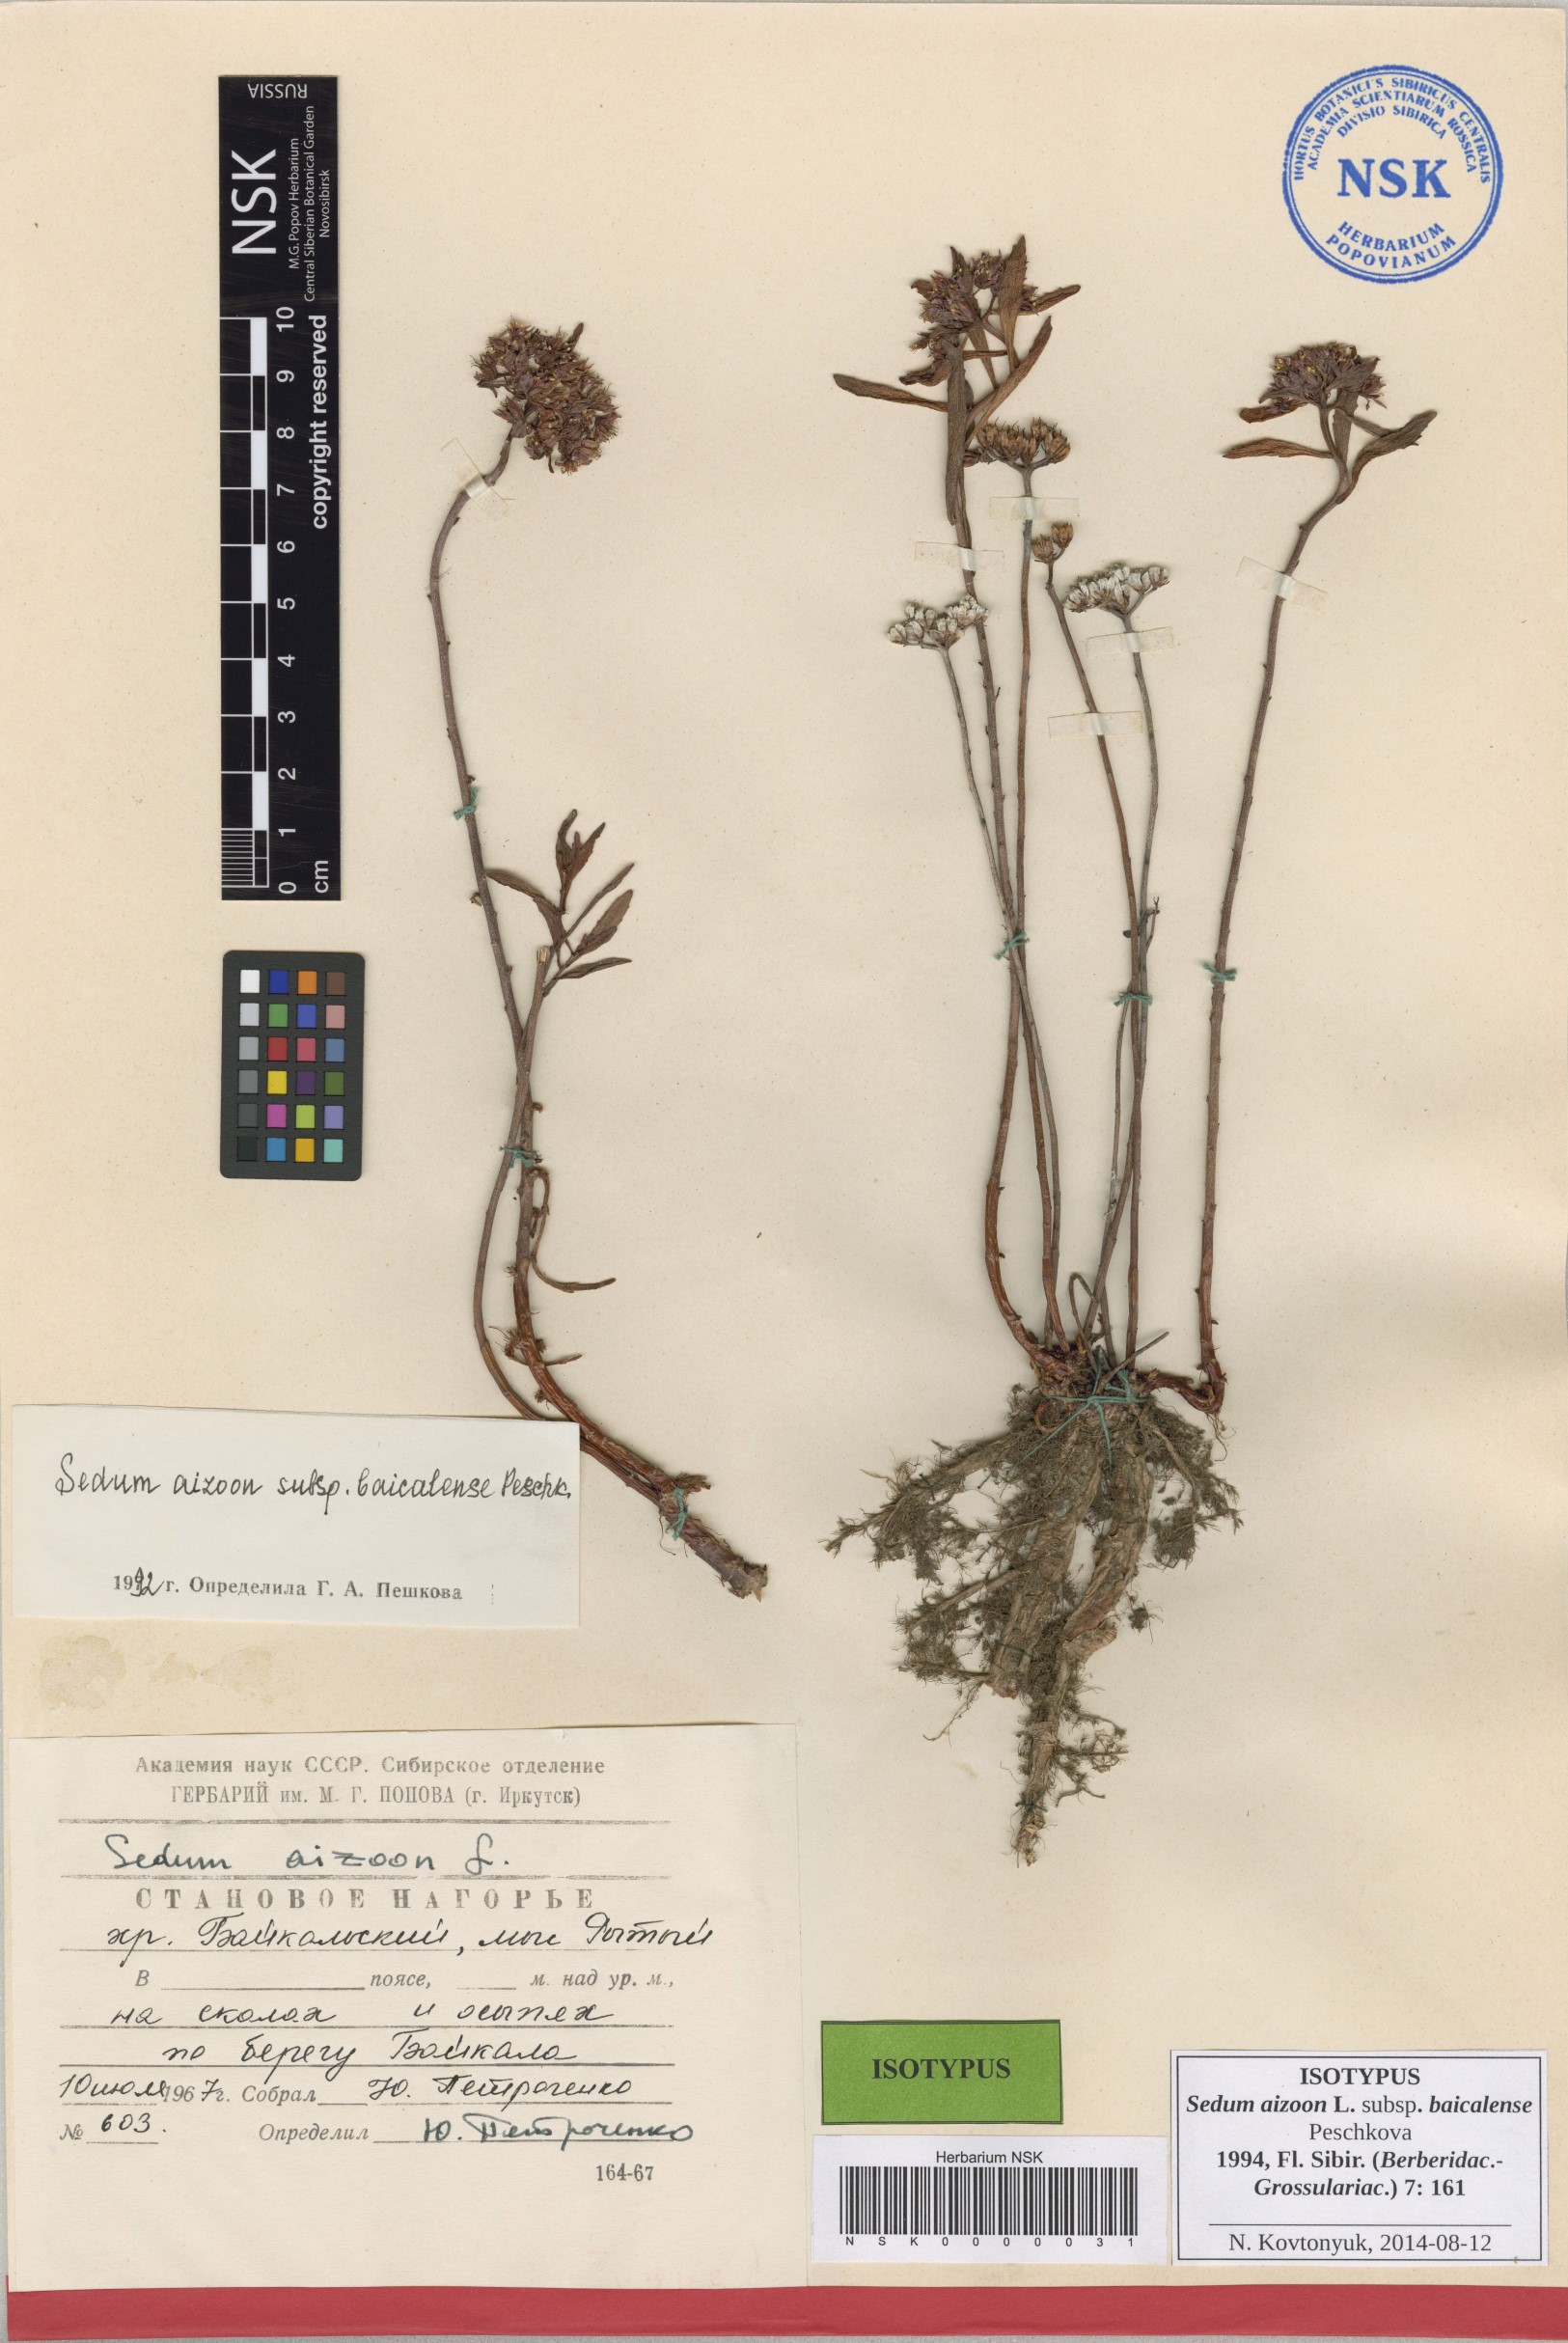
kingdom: Plantae
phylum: Tracheophyta
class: Magnoliopsida
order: Saxifragales
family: Crassulaceae
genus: Phedimus
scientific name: Phedimus aizoon
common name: Orpin aizoon
